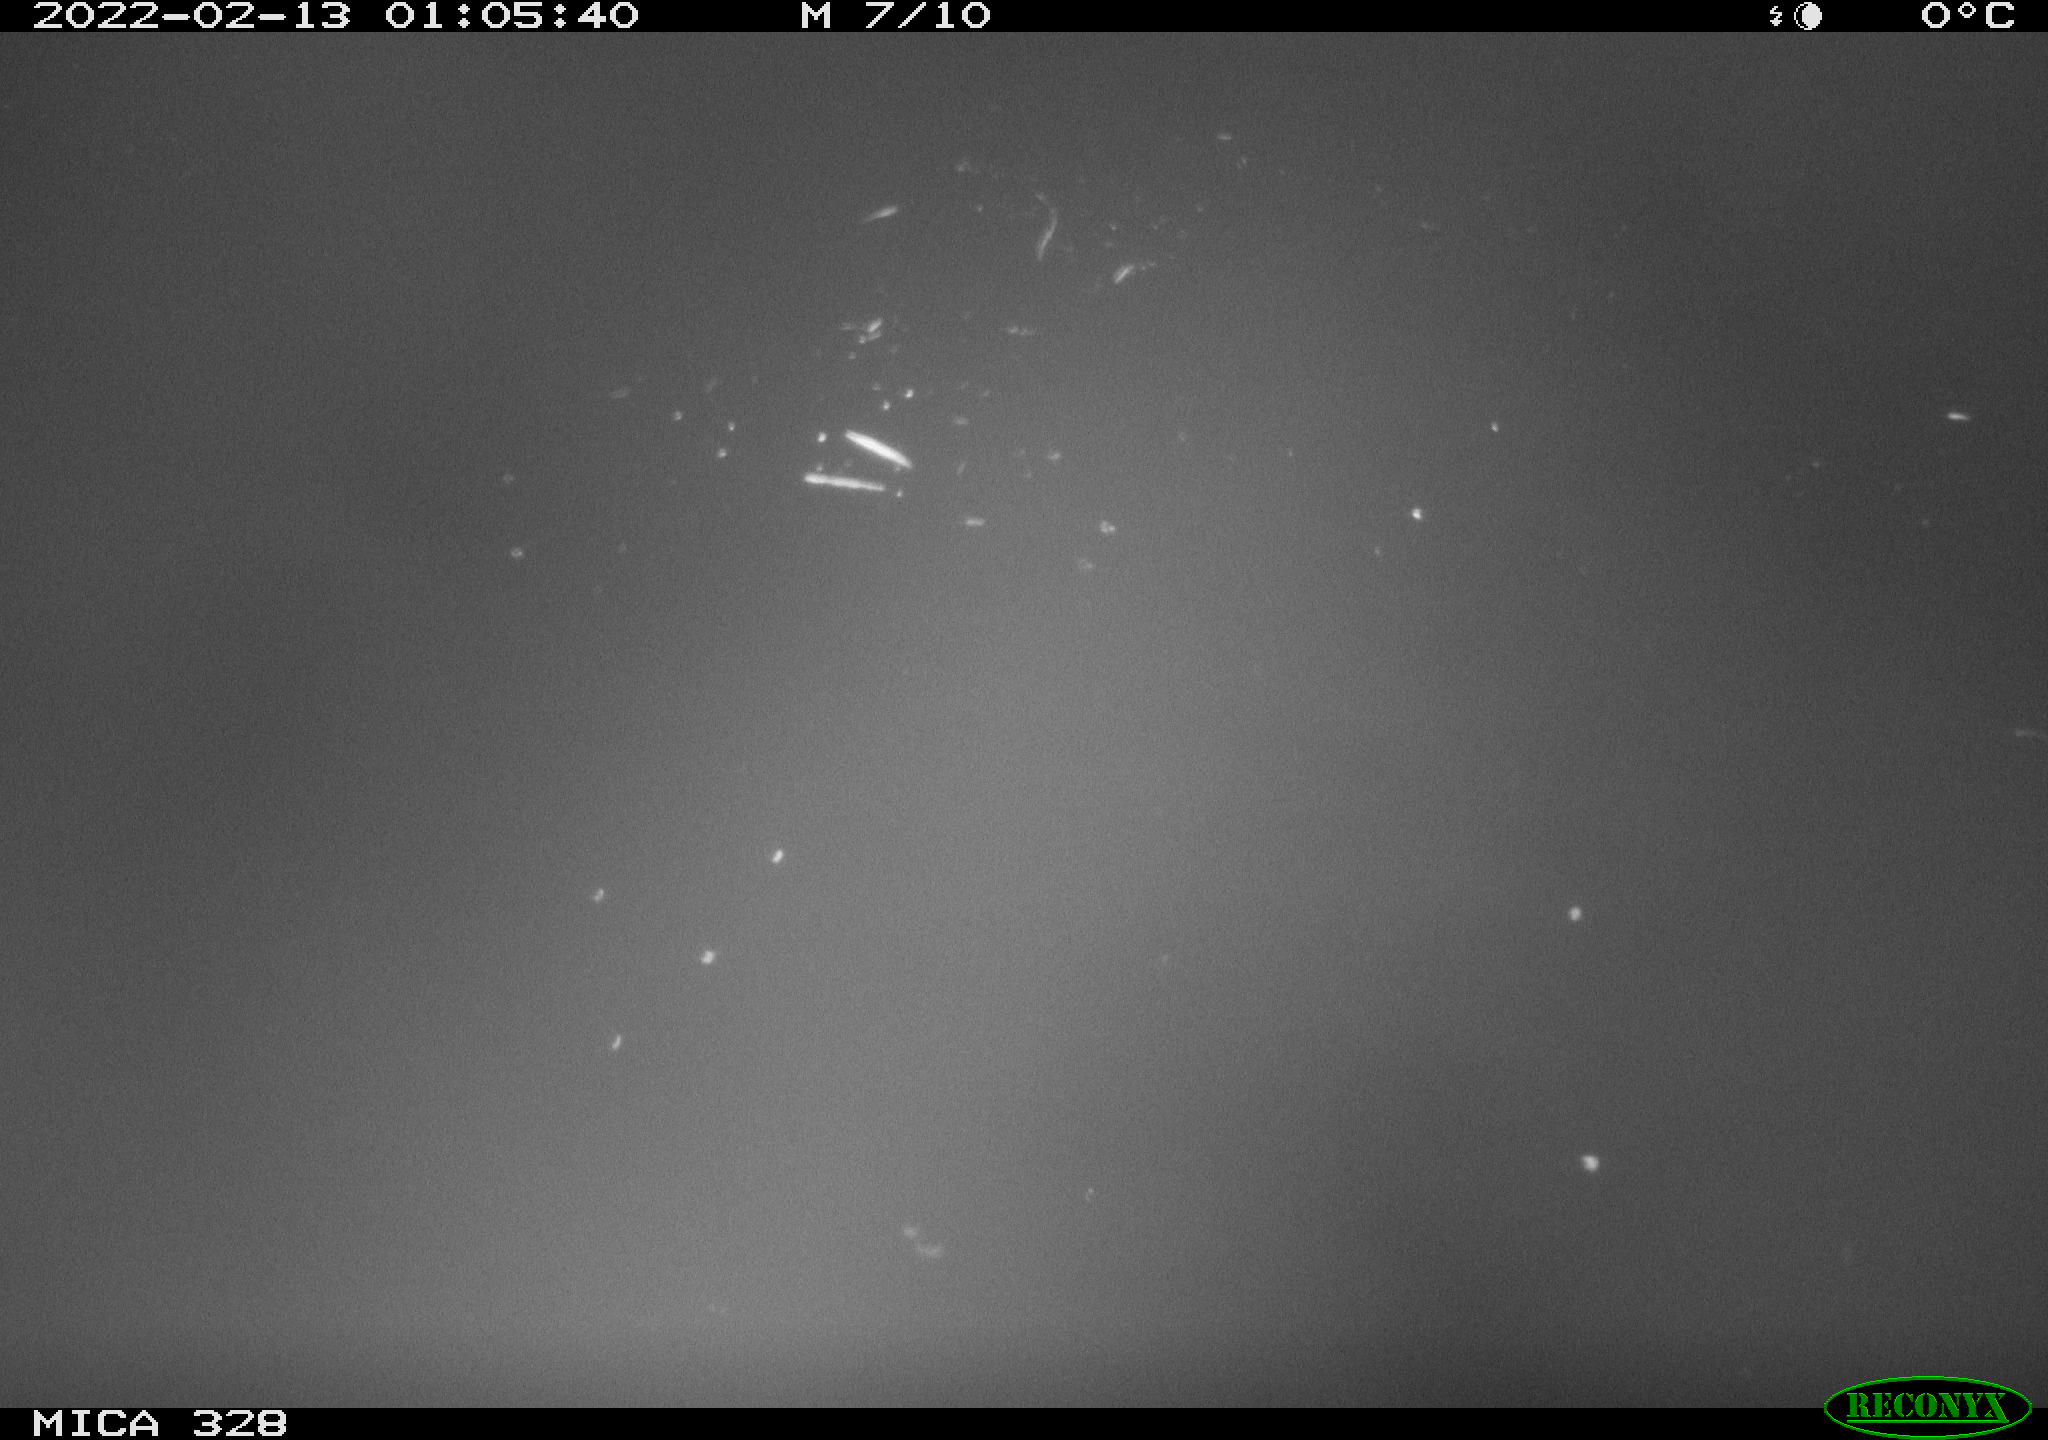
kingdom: Animalia
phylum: Chordata
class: Aves
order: Anseriformes
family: Anatidae
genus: Anas
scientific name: Anas platyrhynchos
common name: Mallard
